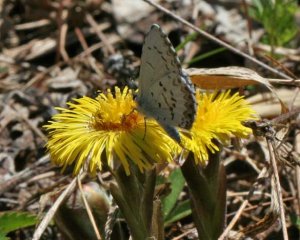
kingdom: Animalia
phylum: Arthropoda
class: Insecta
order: Lepidoptera
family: Lycaenidae
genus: Celastrina
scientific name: Celastrina lucia
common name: Northern Spring Azure
